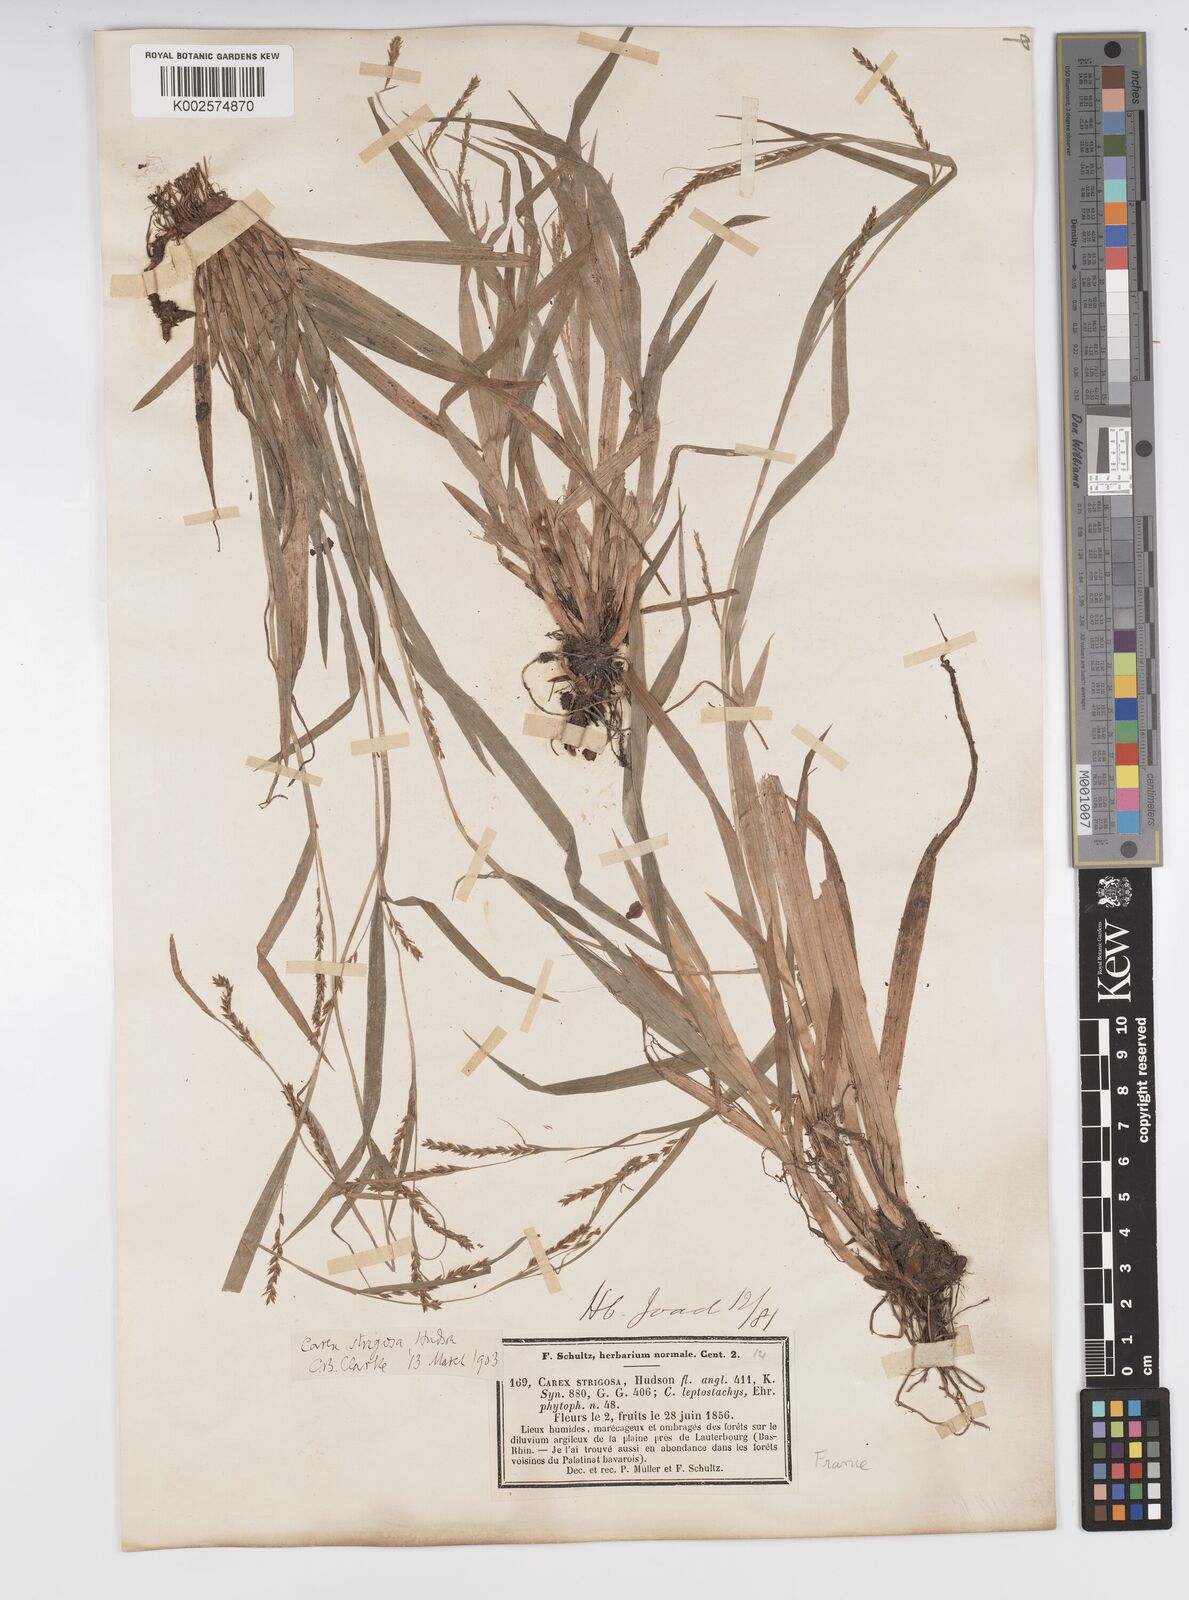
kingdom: Plantae
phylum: Tracheophyta
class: Liliopsida
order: Poales
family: Cyperaceae
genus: Carex
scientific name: Carex strigosa
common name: Thin-spiked wood-sedge
